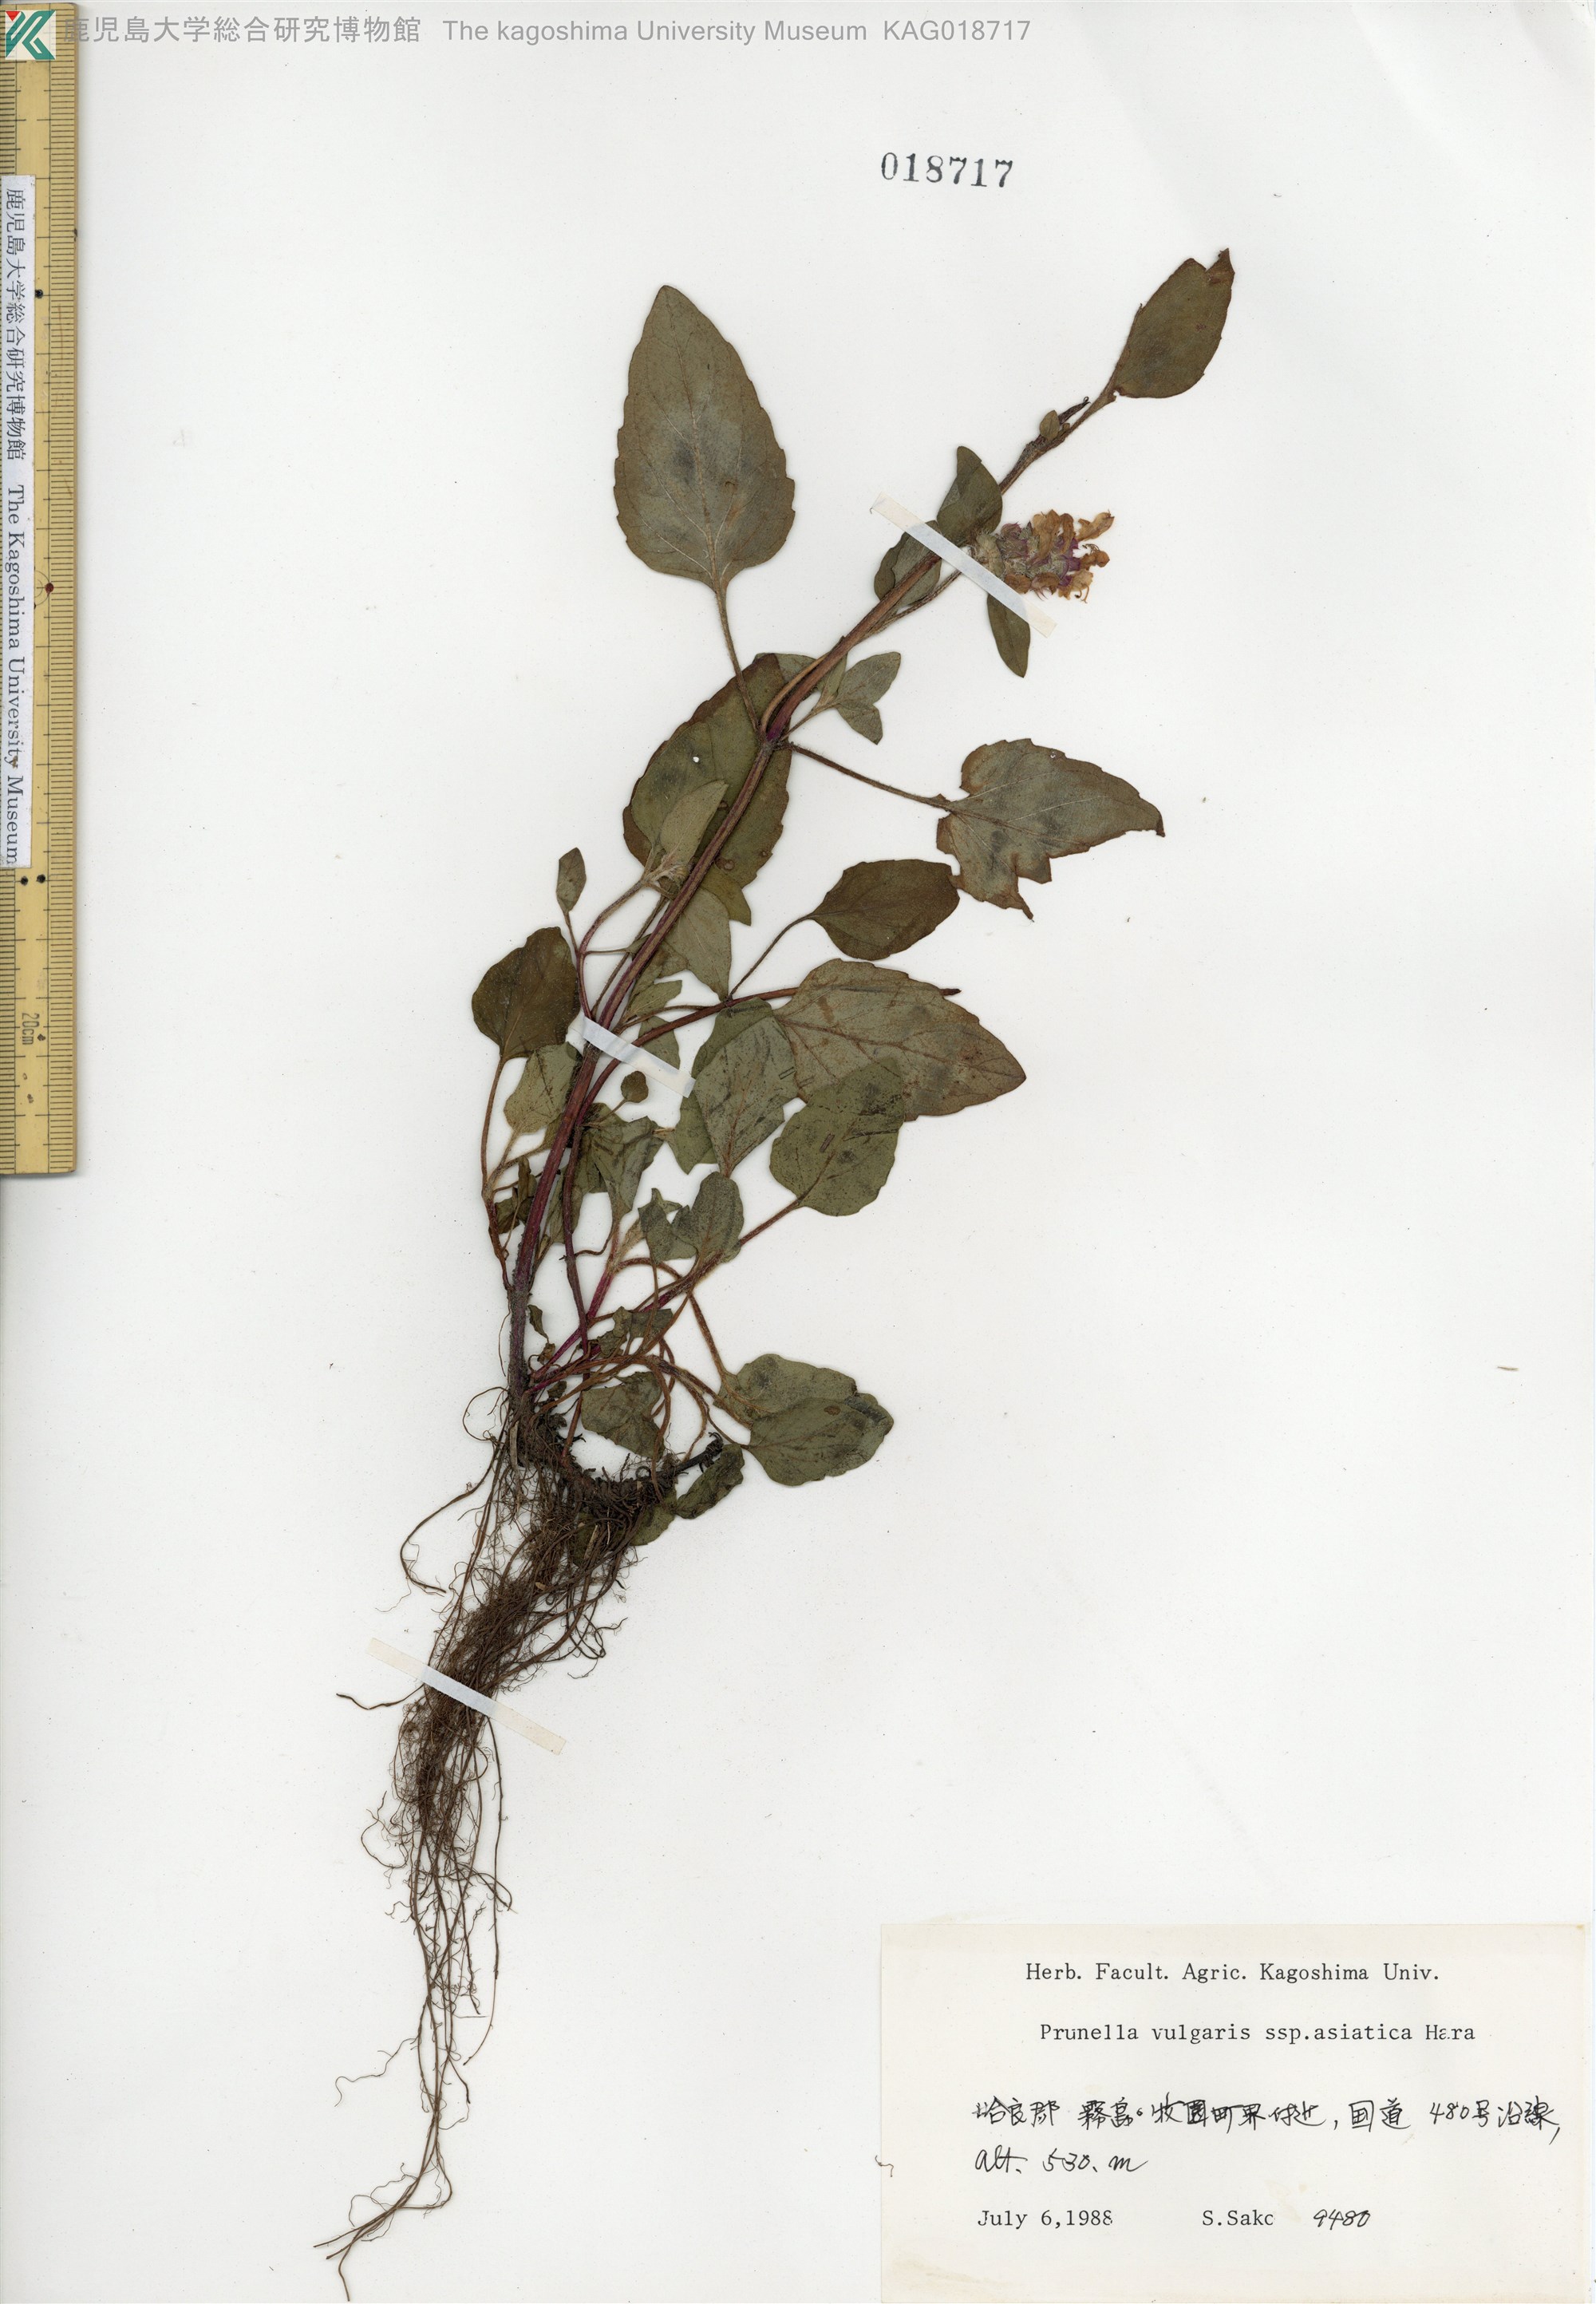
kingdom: Plantae
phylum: Tracheophyta
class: Magnoliopsida
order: Lamiales
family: Lamiaceae
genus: Prunella
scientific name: Prunella vulgaris
